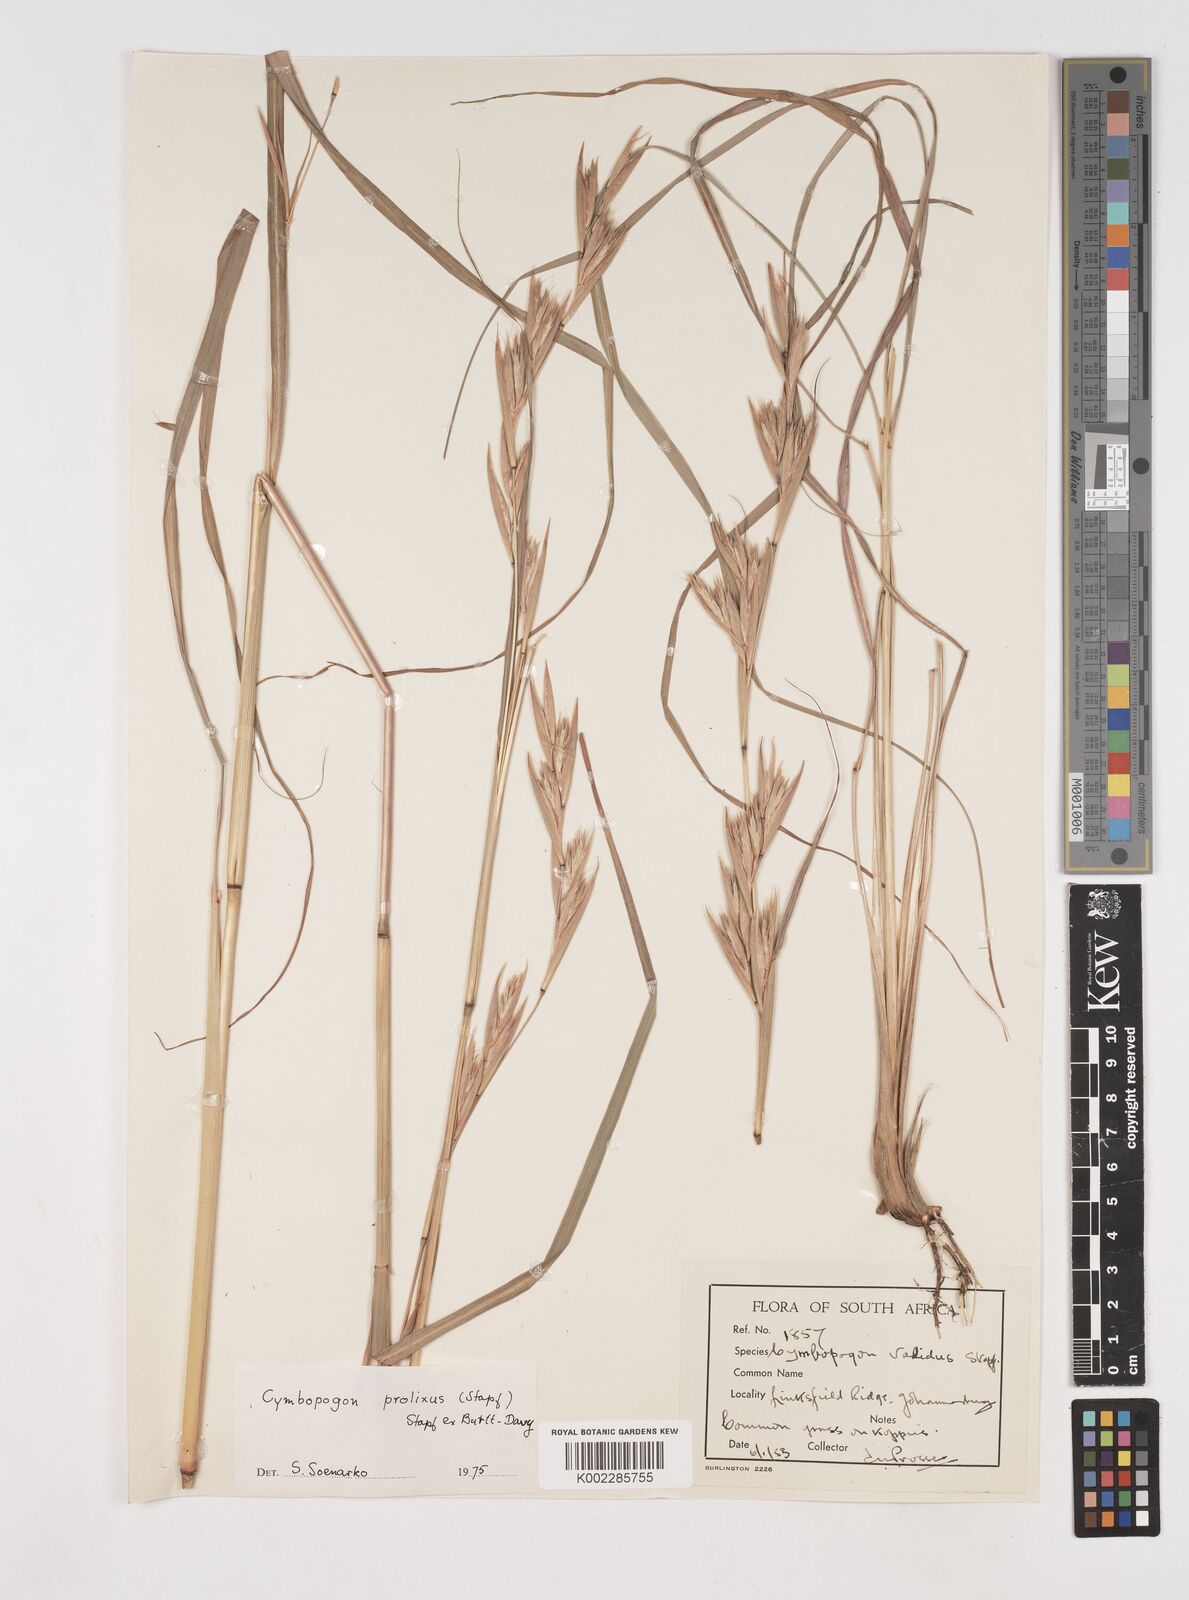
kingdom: Plantae
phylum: Tracheophyta
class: Liliopsida
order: Poales
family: Poaceae
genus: Cymbopogon
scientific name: Cymbopogon nardus
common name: Giant turpentine grass
